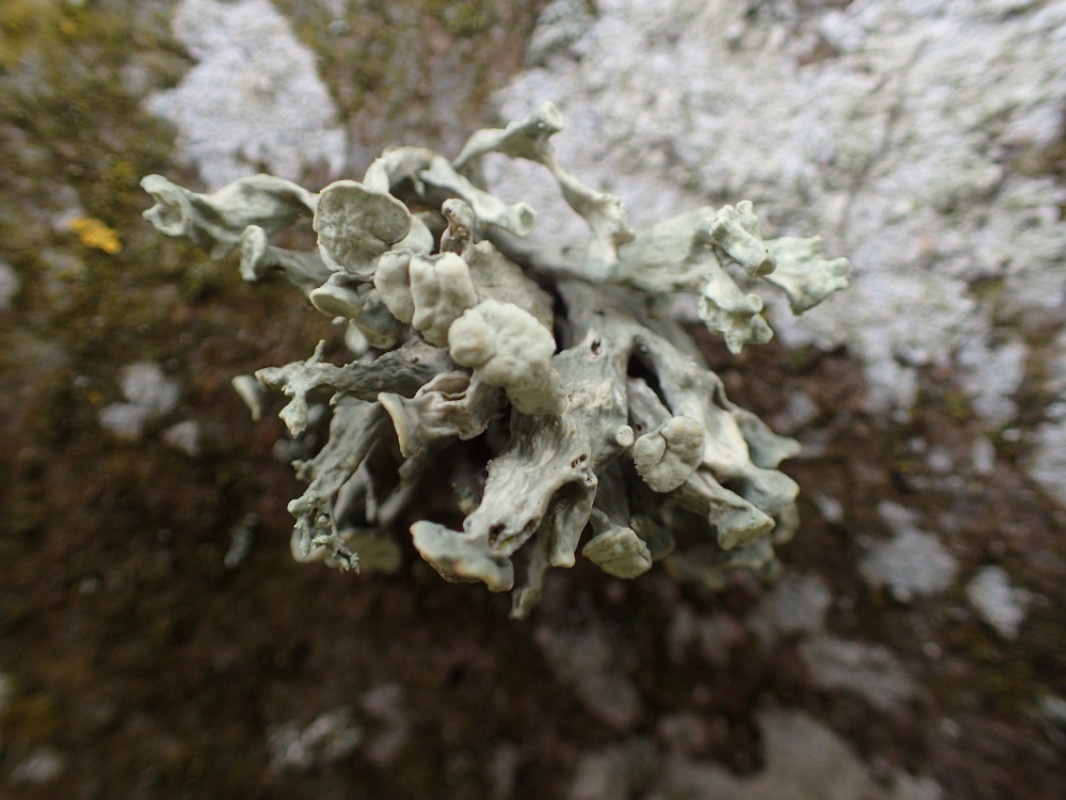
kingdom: Fungi
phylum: Ascomycota
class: Lecanoromycetes
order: Lecanorales
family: Ramalinaceae
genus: Ramalina
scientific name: Ramalina fastigiata
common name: tue-grenlav
